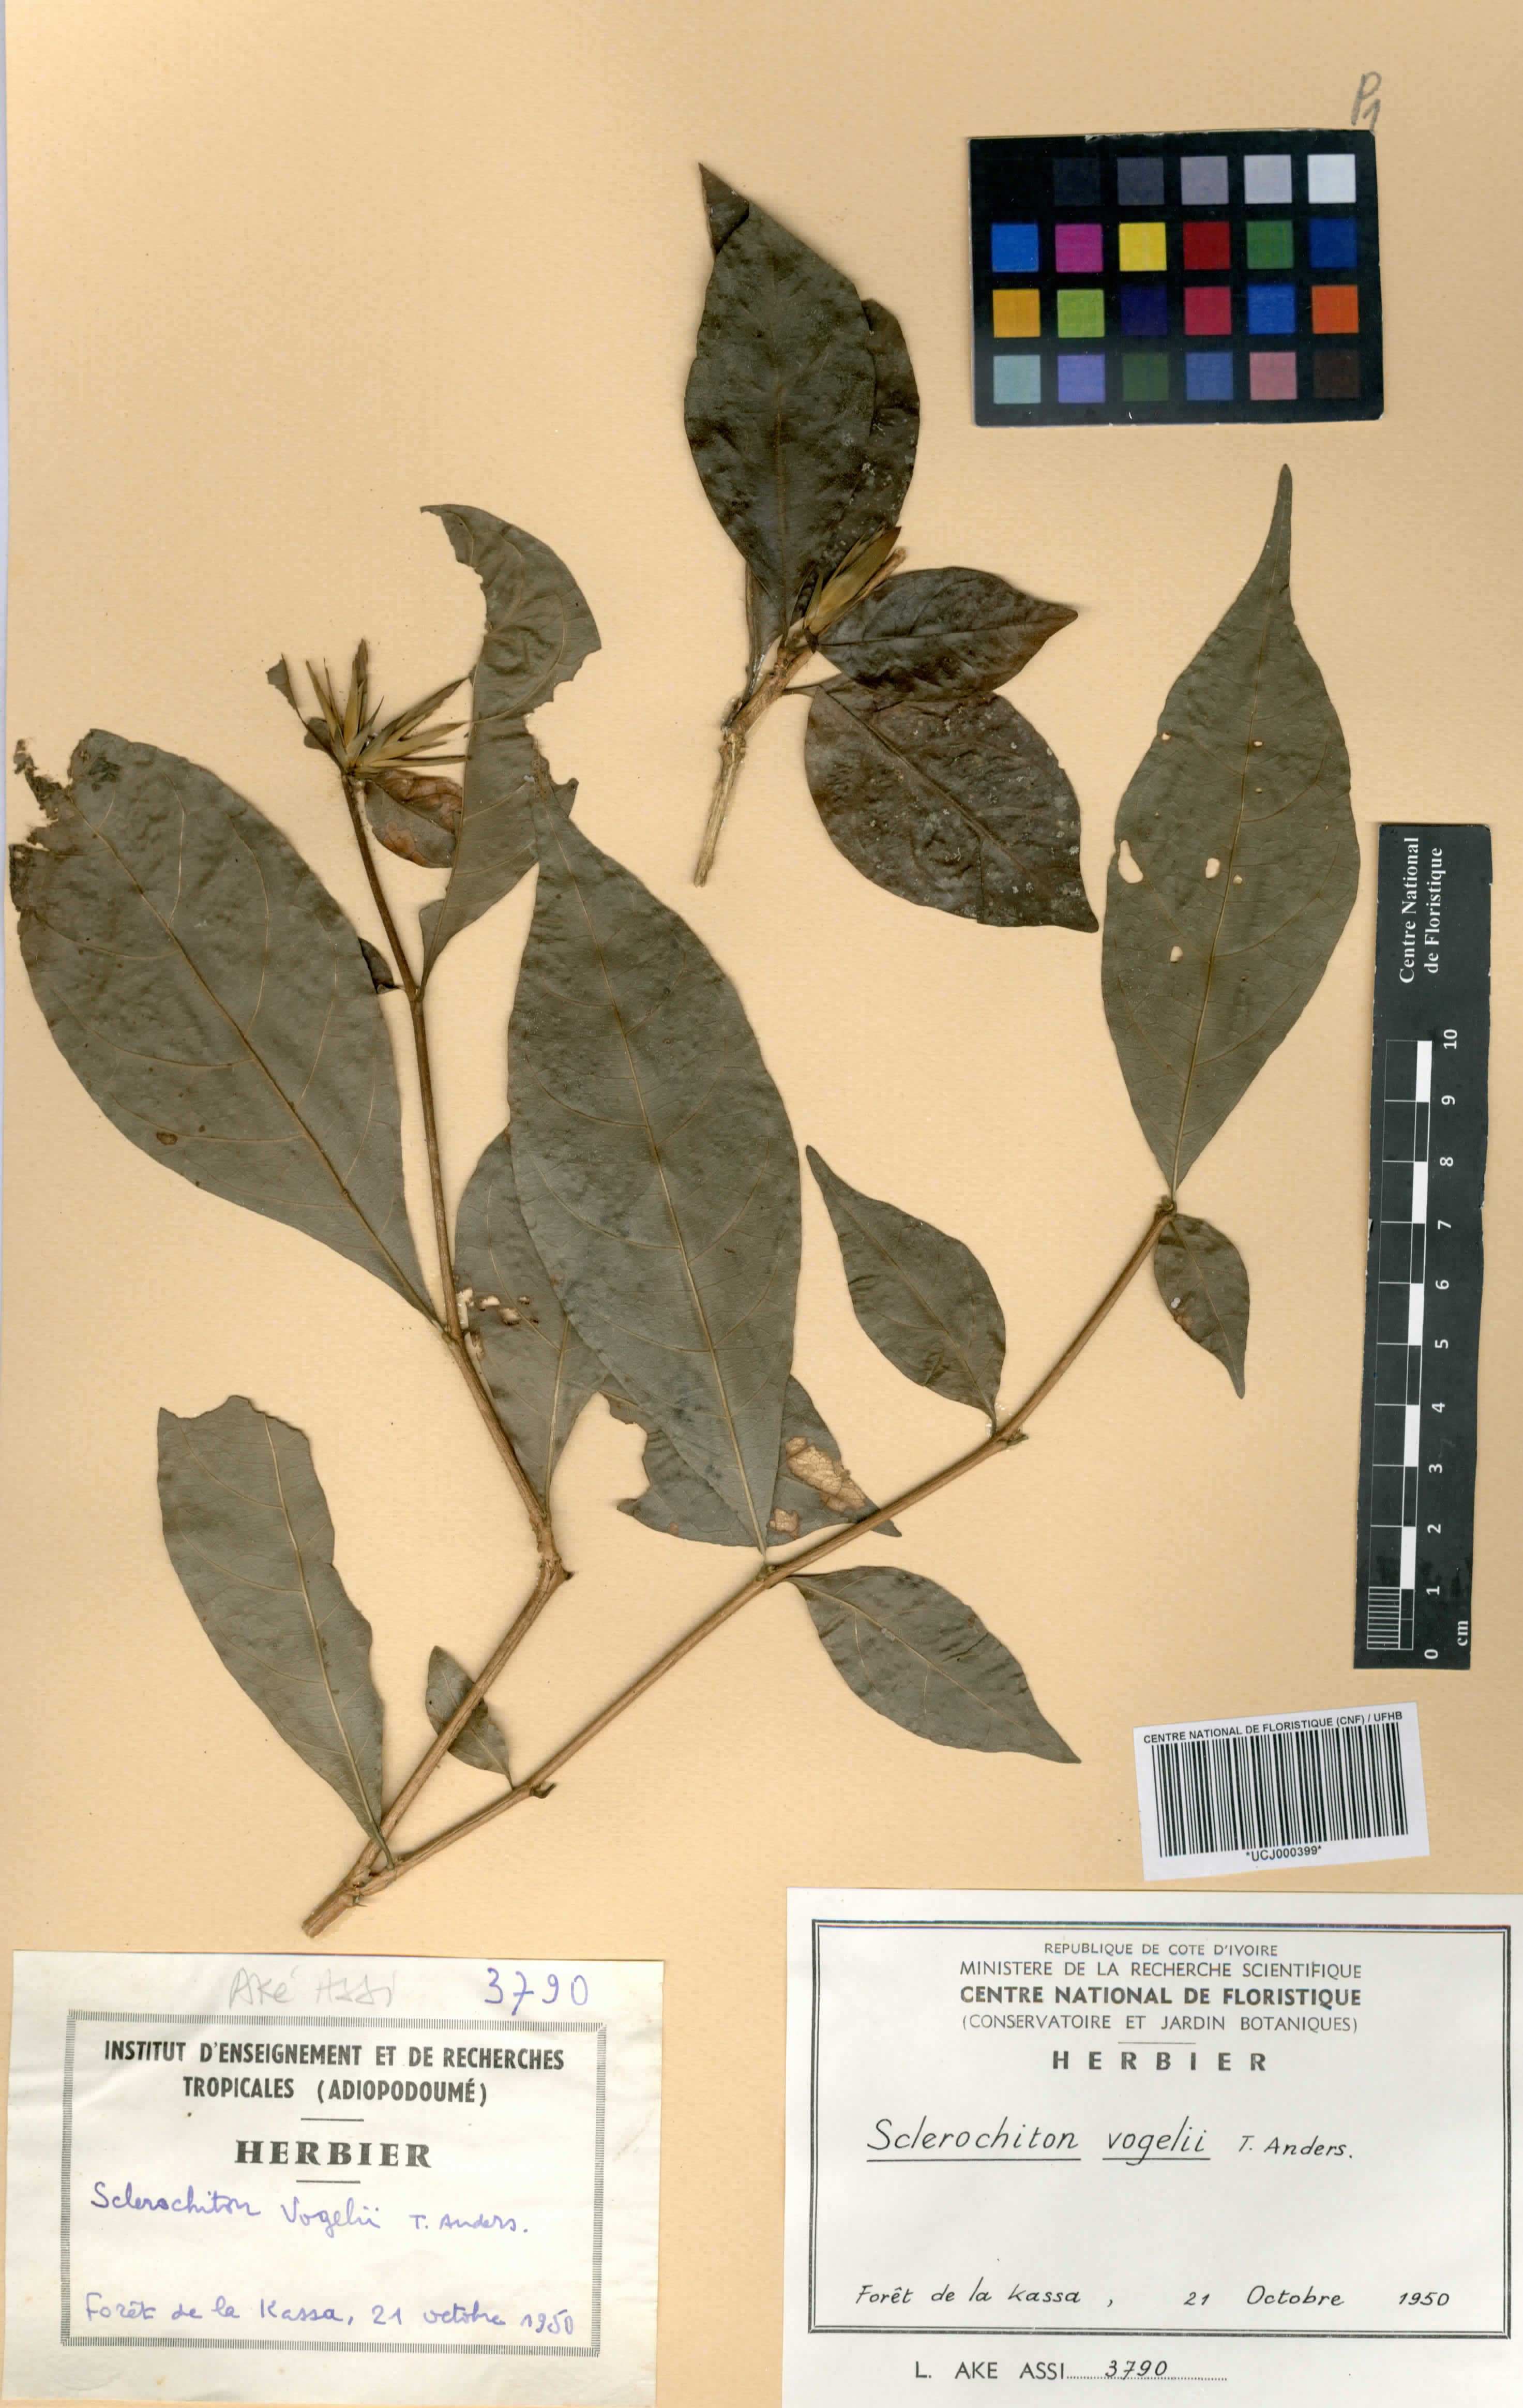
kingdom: Plantae
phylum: Tracheophyta
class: Magnoliopsida
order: Lamiales
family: Acanthaceae
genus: Sclerochiton
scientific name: Sclerochiton vogelii
